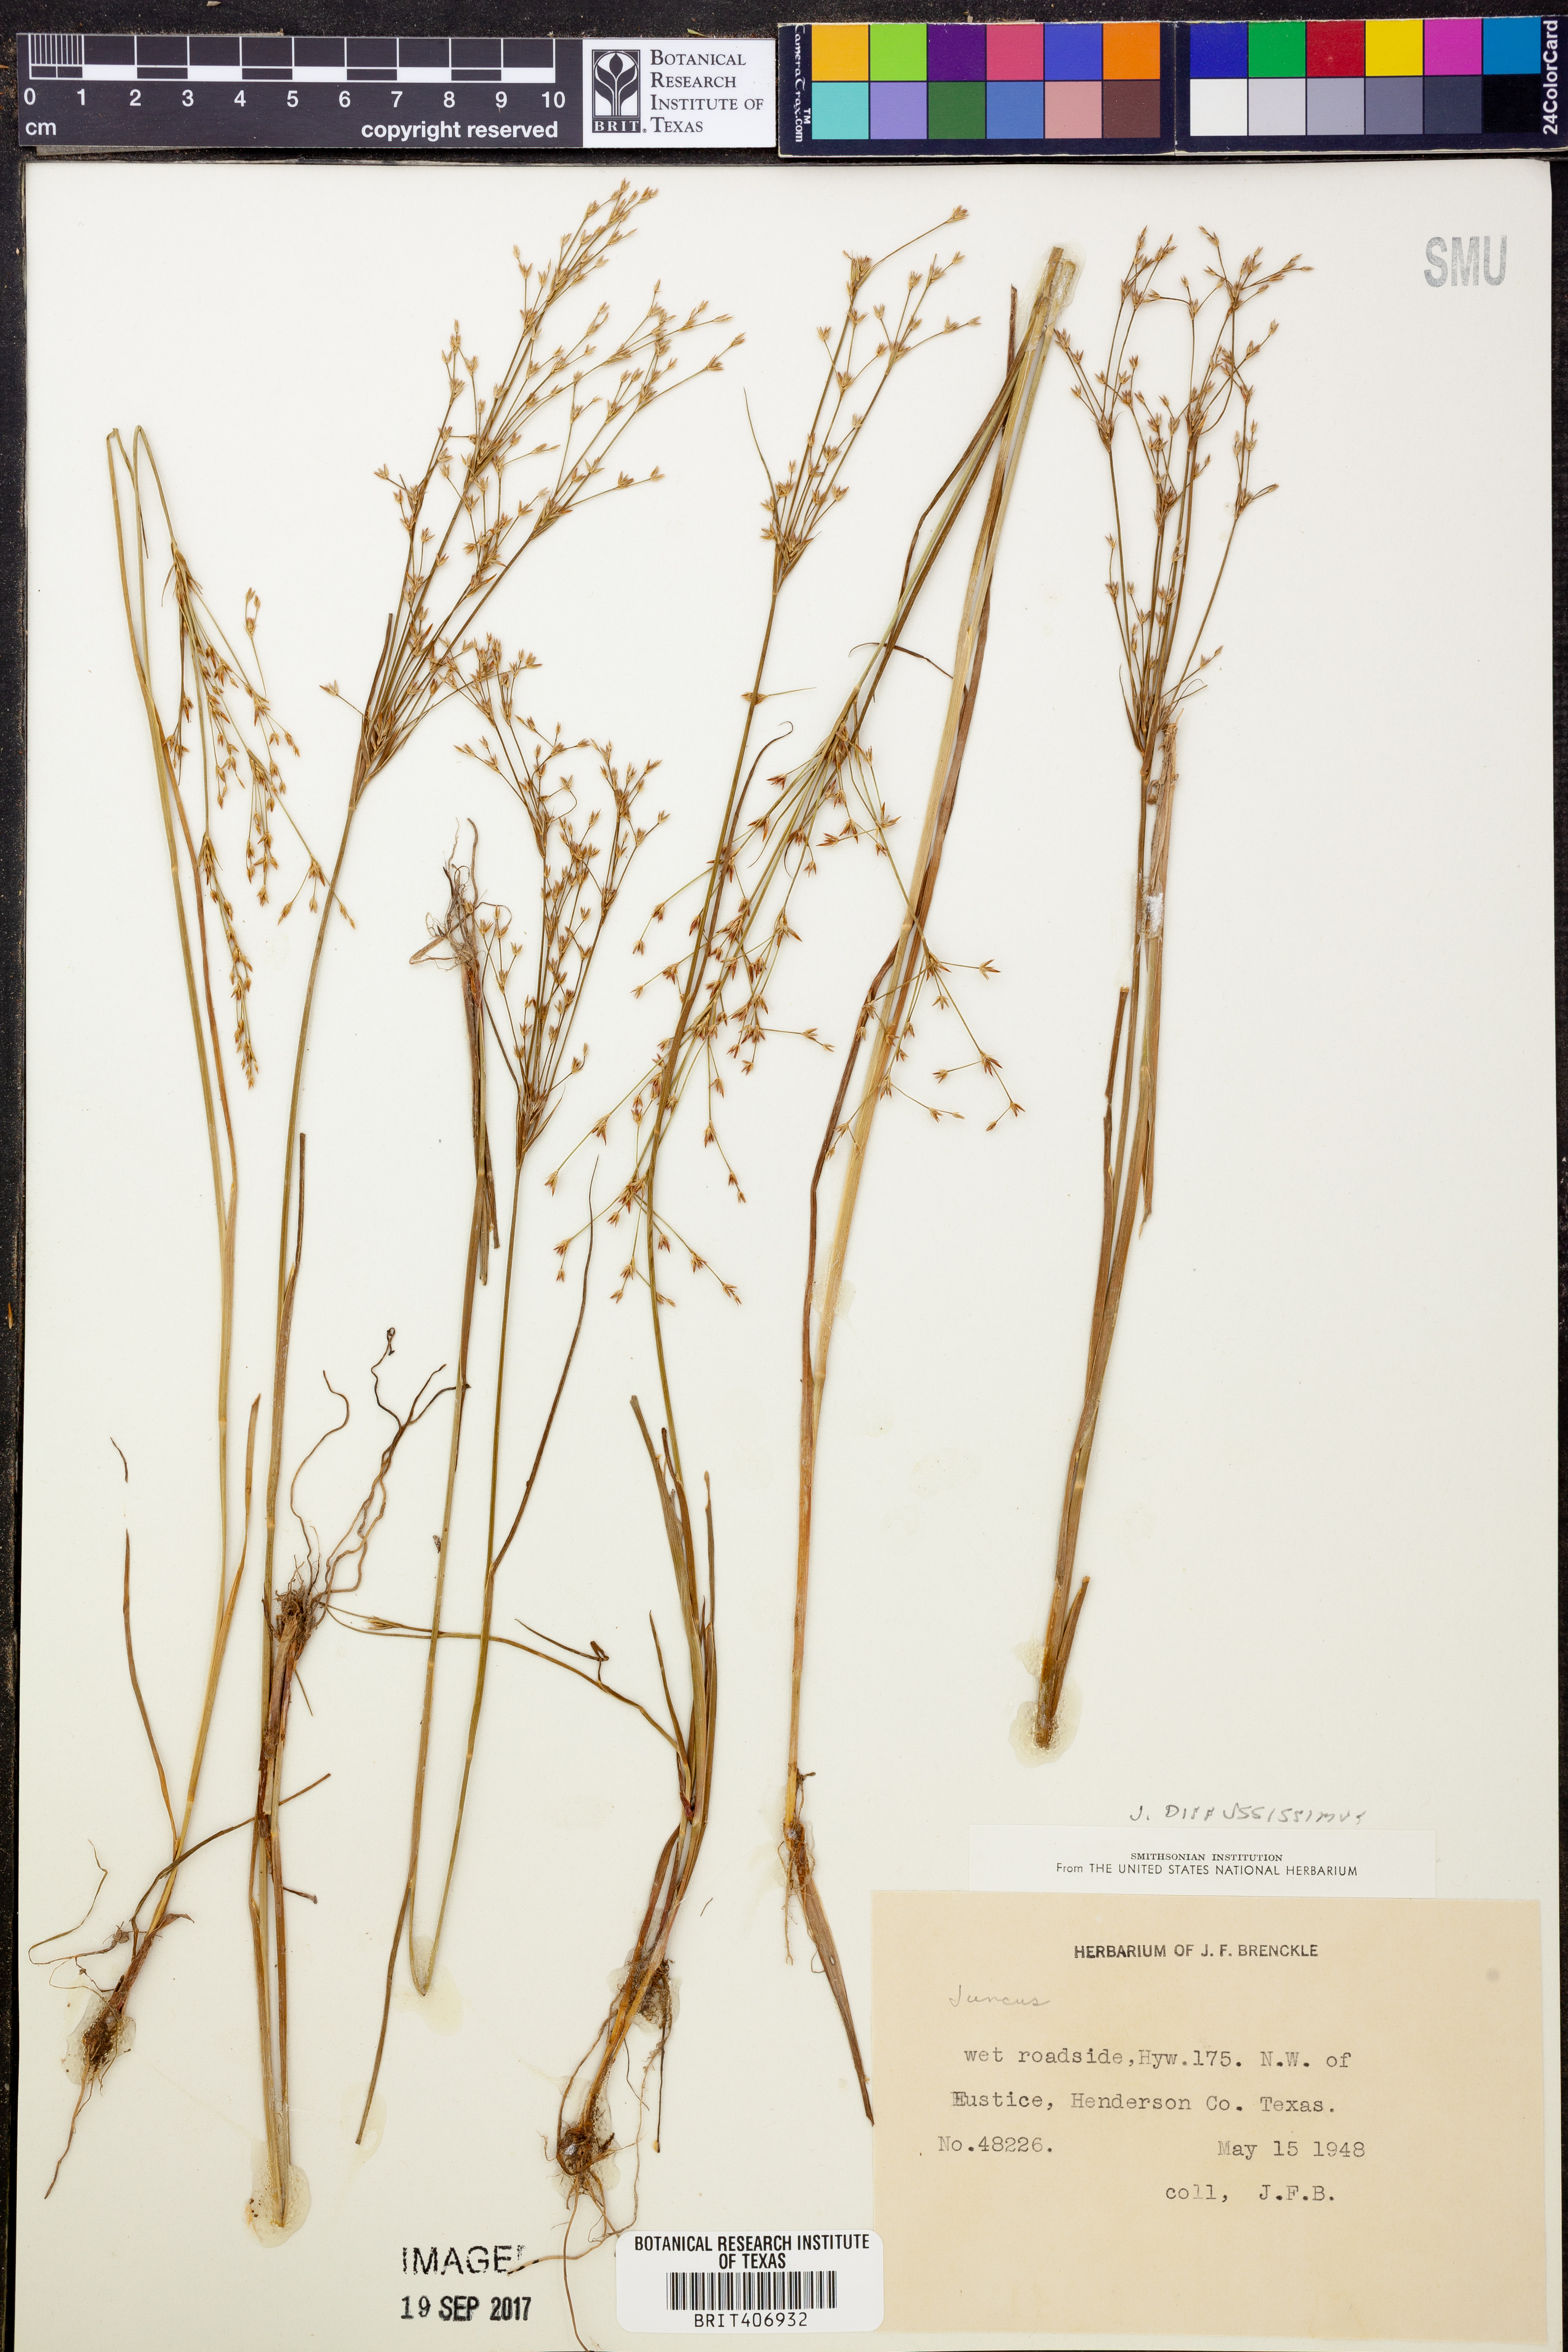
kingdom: Plantae
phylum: Tracheophyta
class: Liliopsida
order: Poales
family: Juncaceae
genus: Juncus
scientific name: Juncus diffusissimus
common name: Slimpod rush
